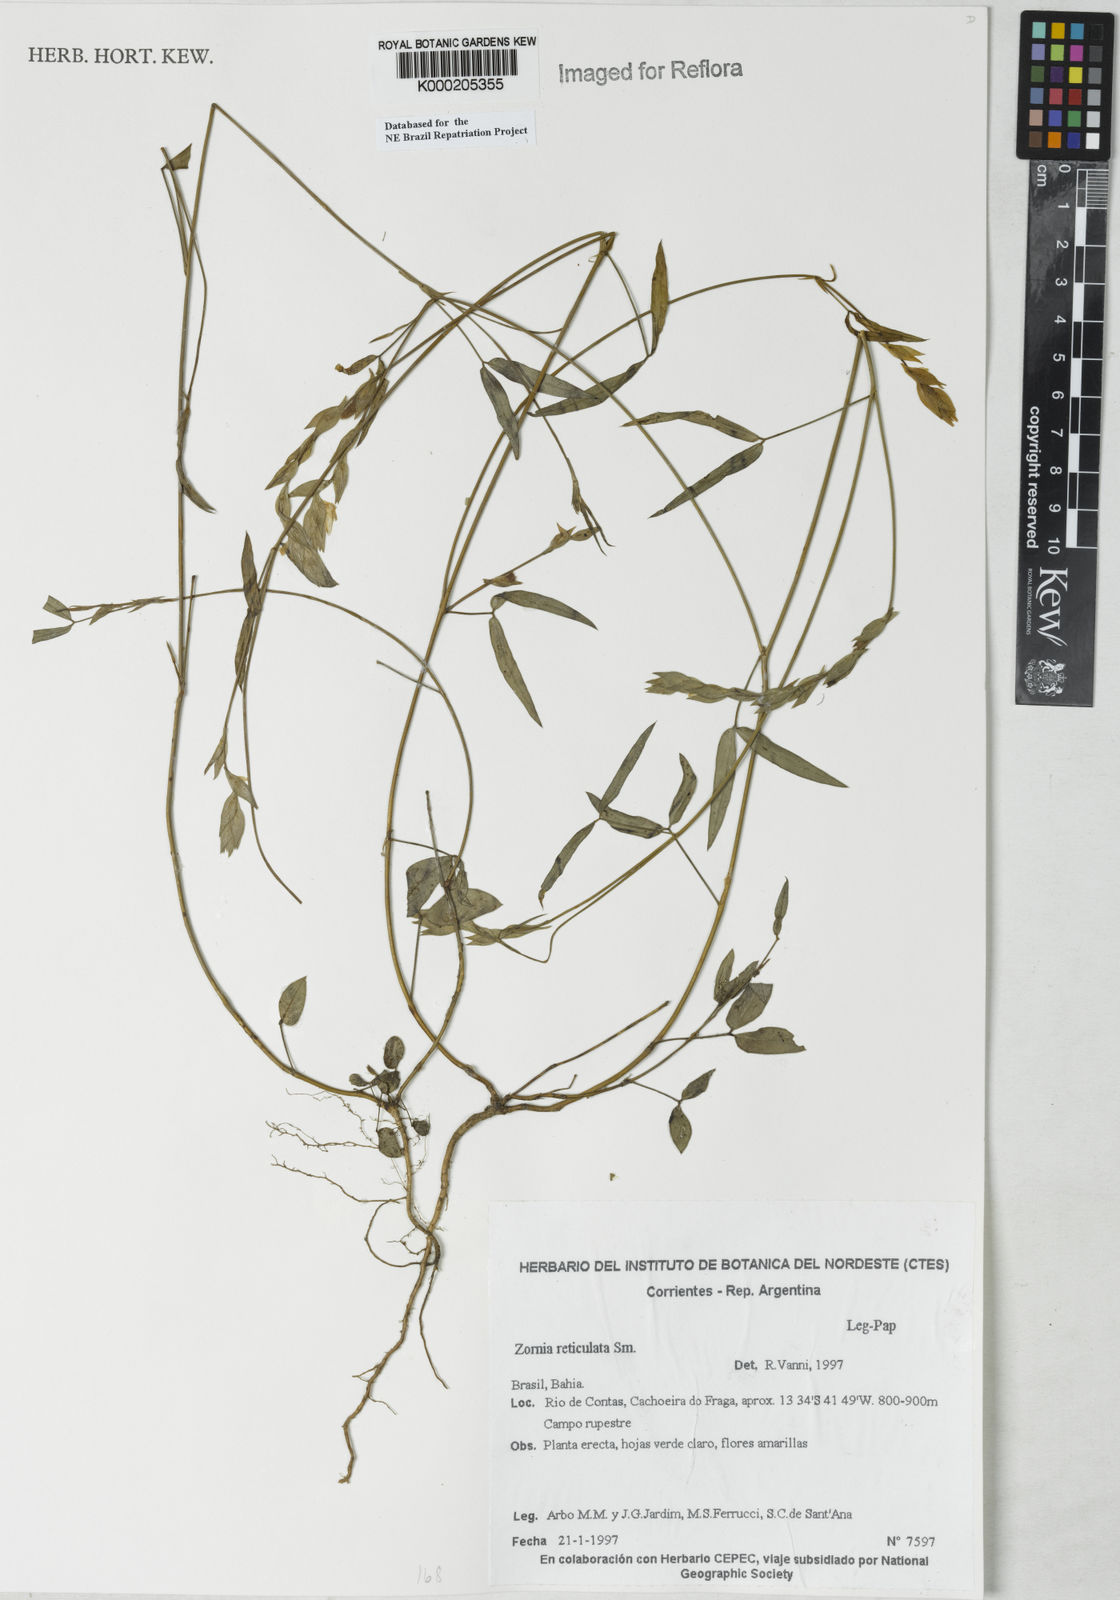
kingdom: Plantae
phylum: Tracheophyta
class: Magnoliopsida
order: Fabales
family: Fabaceae
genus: Zornia
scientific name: Zornia reticulata
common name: Reticulate viperina
